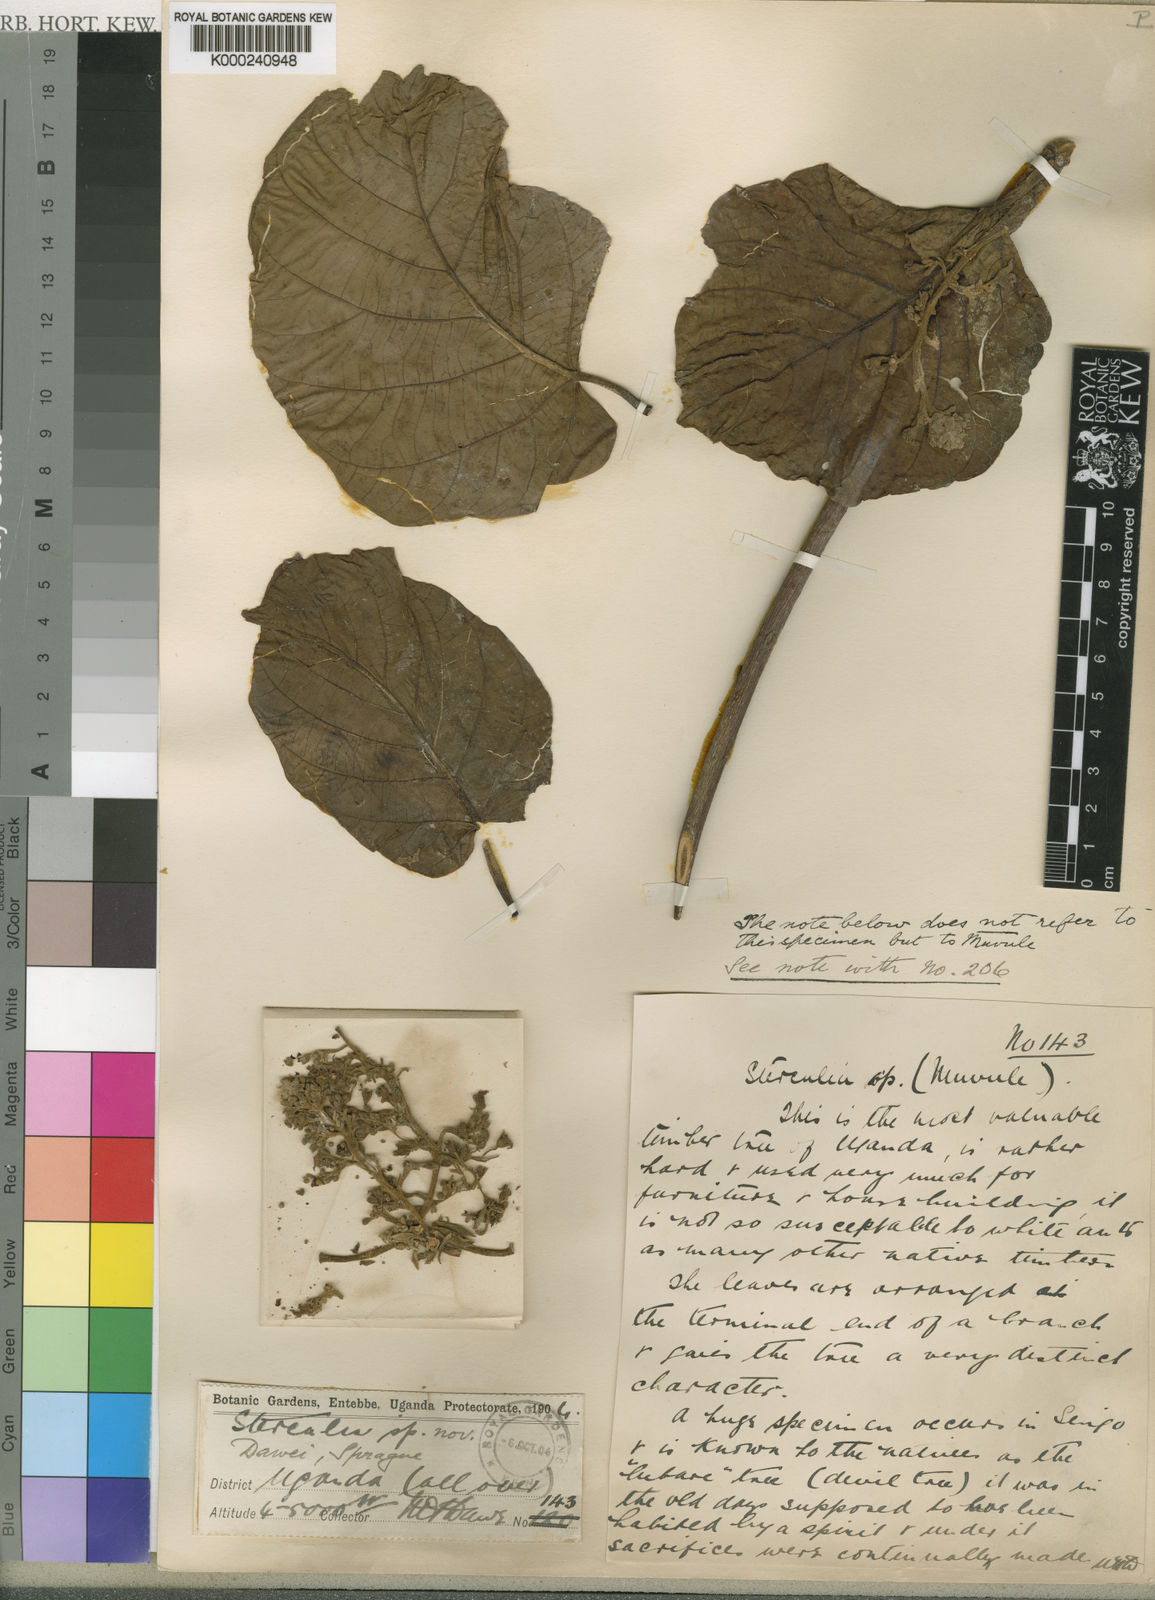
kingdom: Plantae
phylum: Tracheophyta
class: Magnoliopsida
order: Malvales
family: Malvaceae
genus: Sterculia
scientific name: Sterculia dawei
